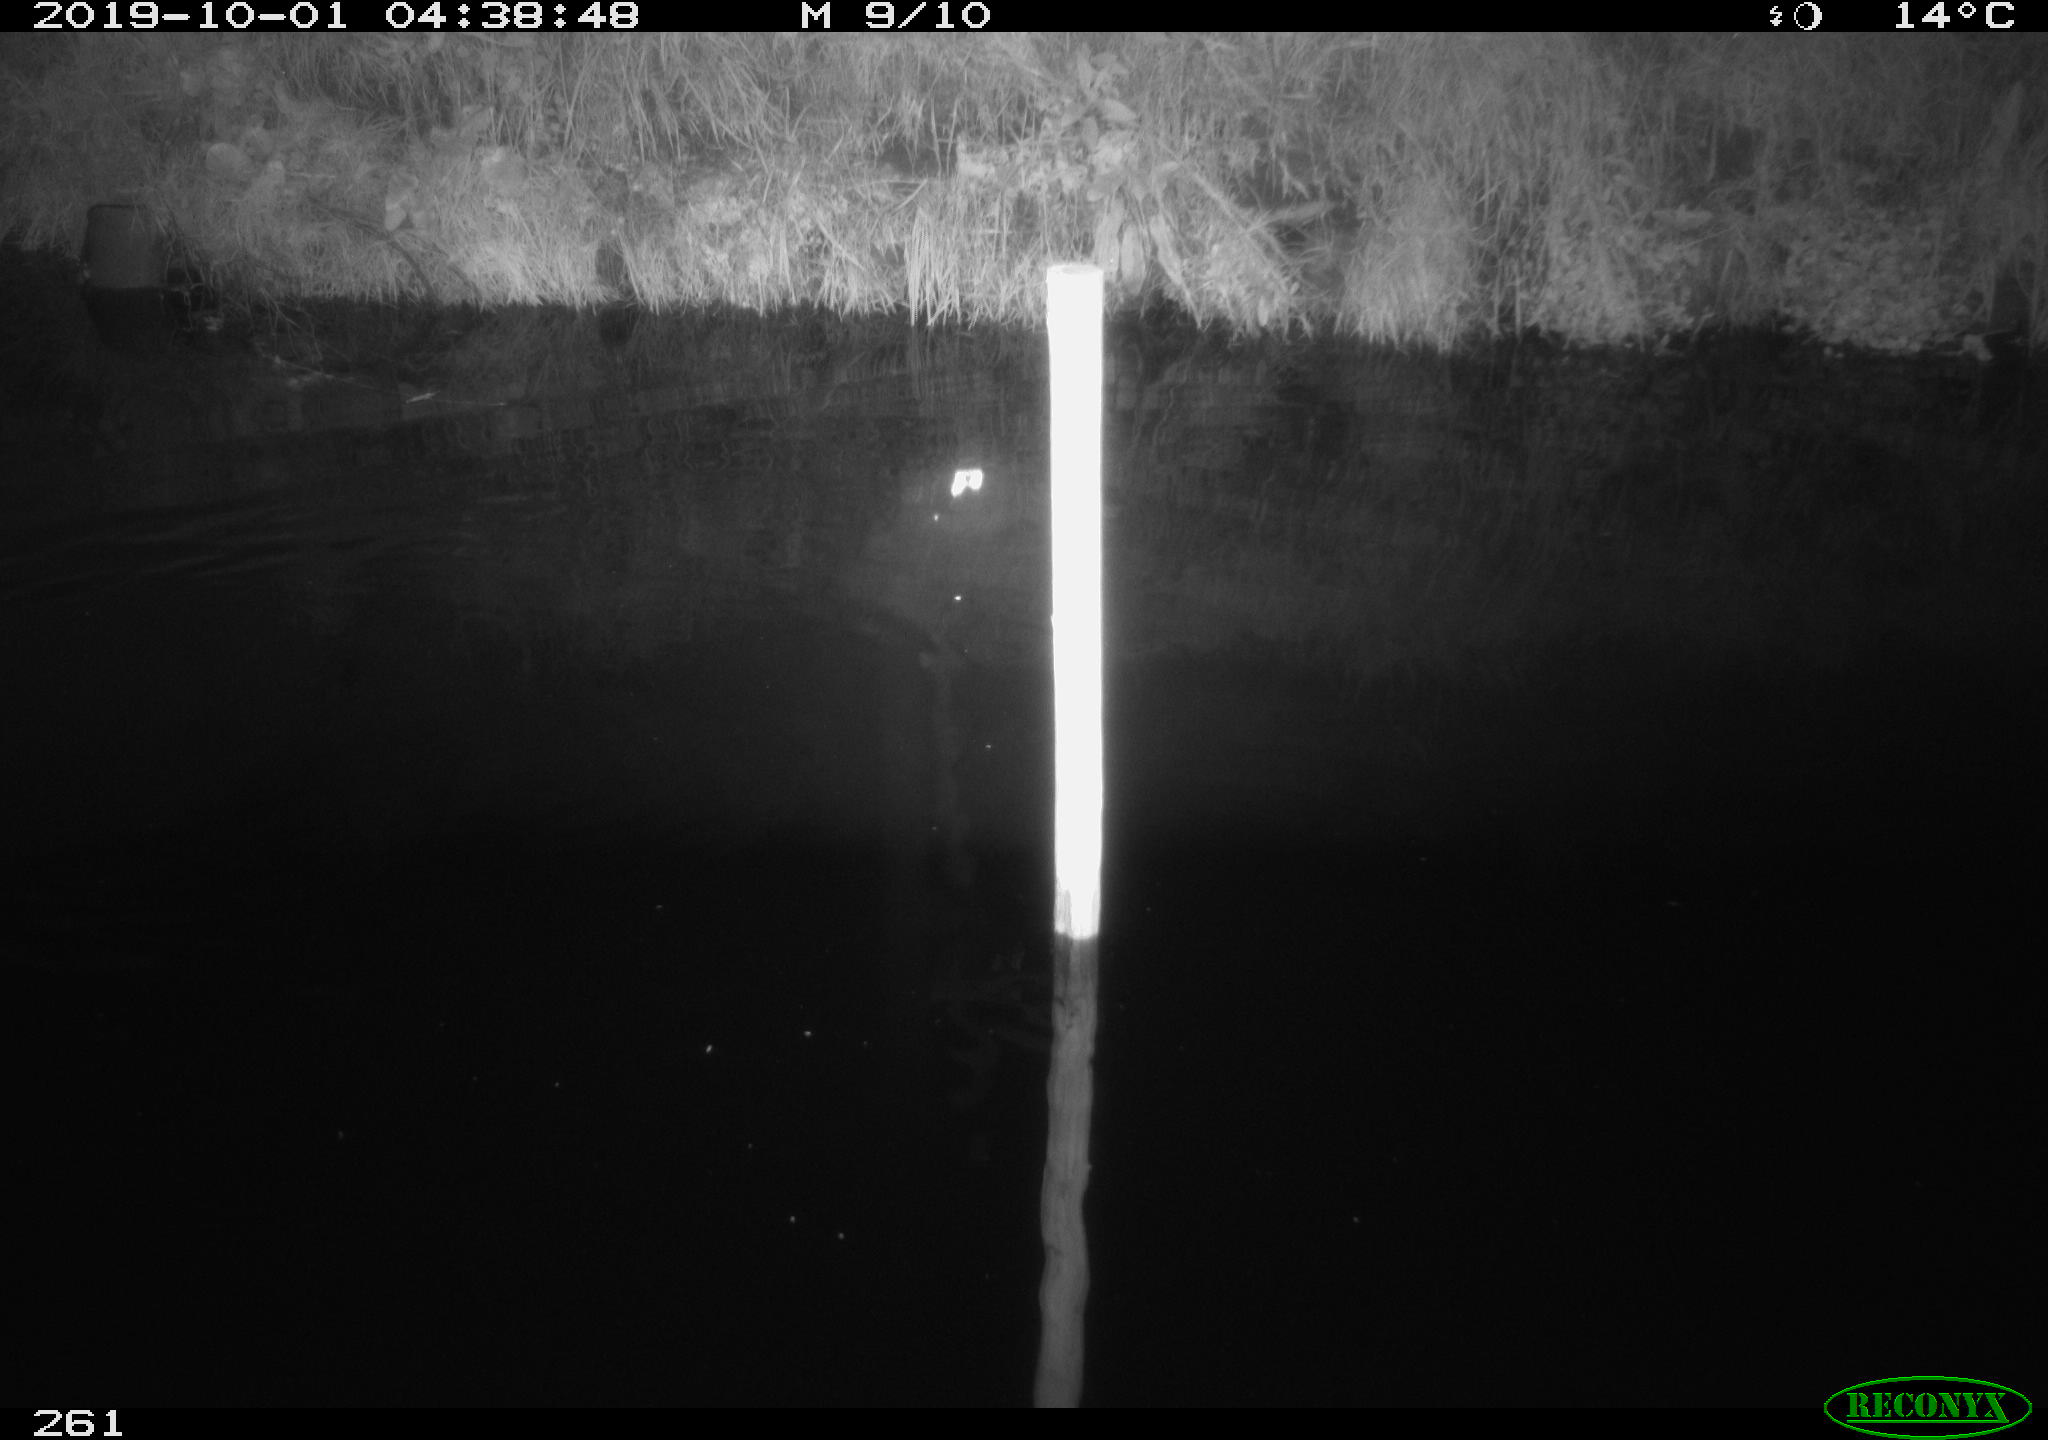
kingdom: Animalia
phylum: Chordata
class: Aves
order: Anseriformes
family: Anatidae
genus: Anas
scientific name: Anas platyrhynchos
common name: Mallard
